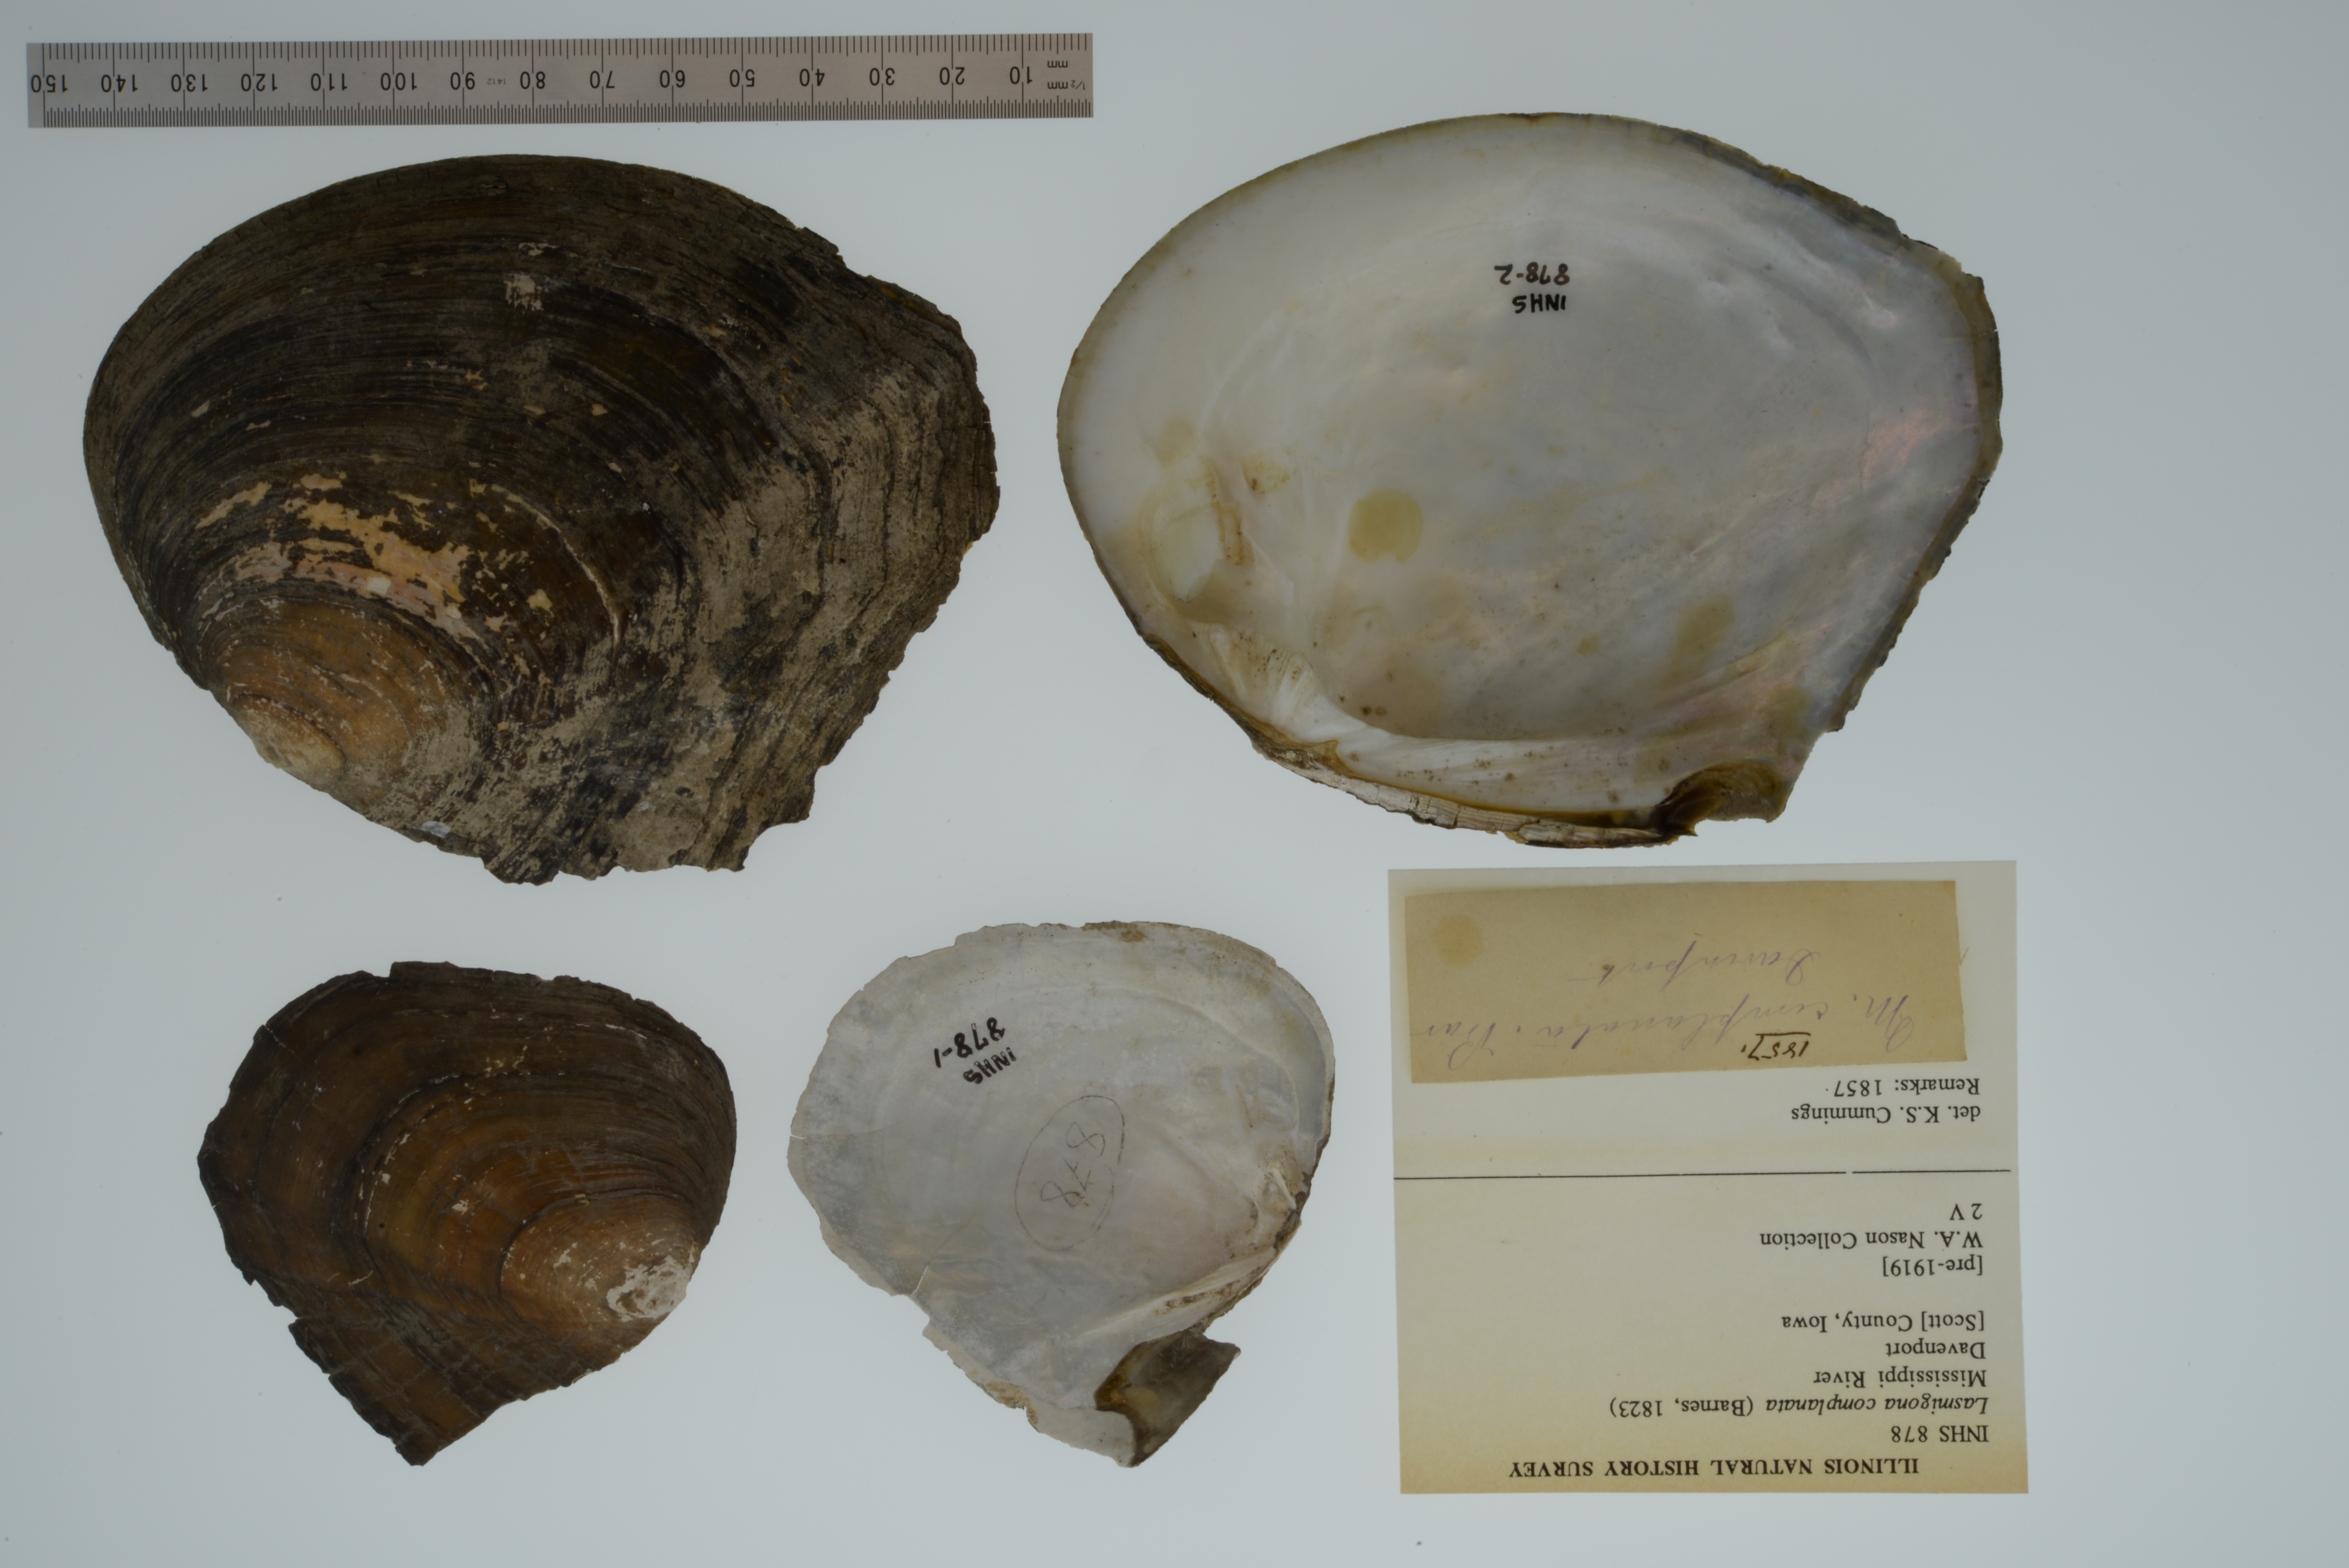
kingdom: Animalia
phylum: Mollusca
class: Bivalvia
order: Unionida
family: Unionidae
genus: Lasmigona
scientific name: Lasmigona complanata
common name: White heelsplitter
